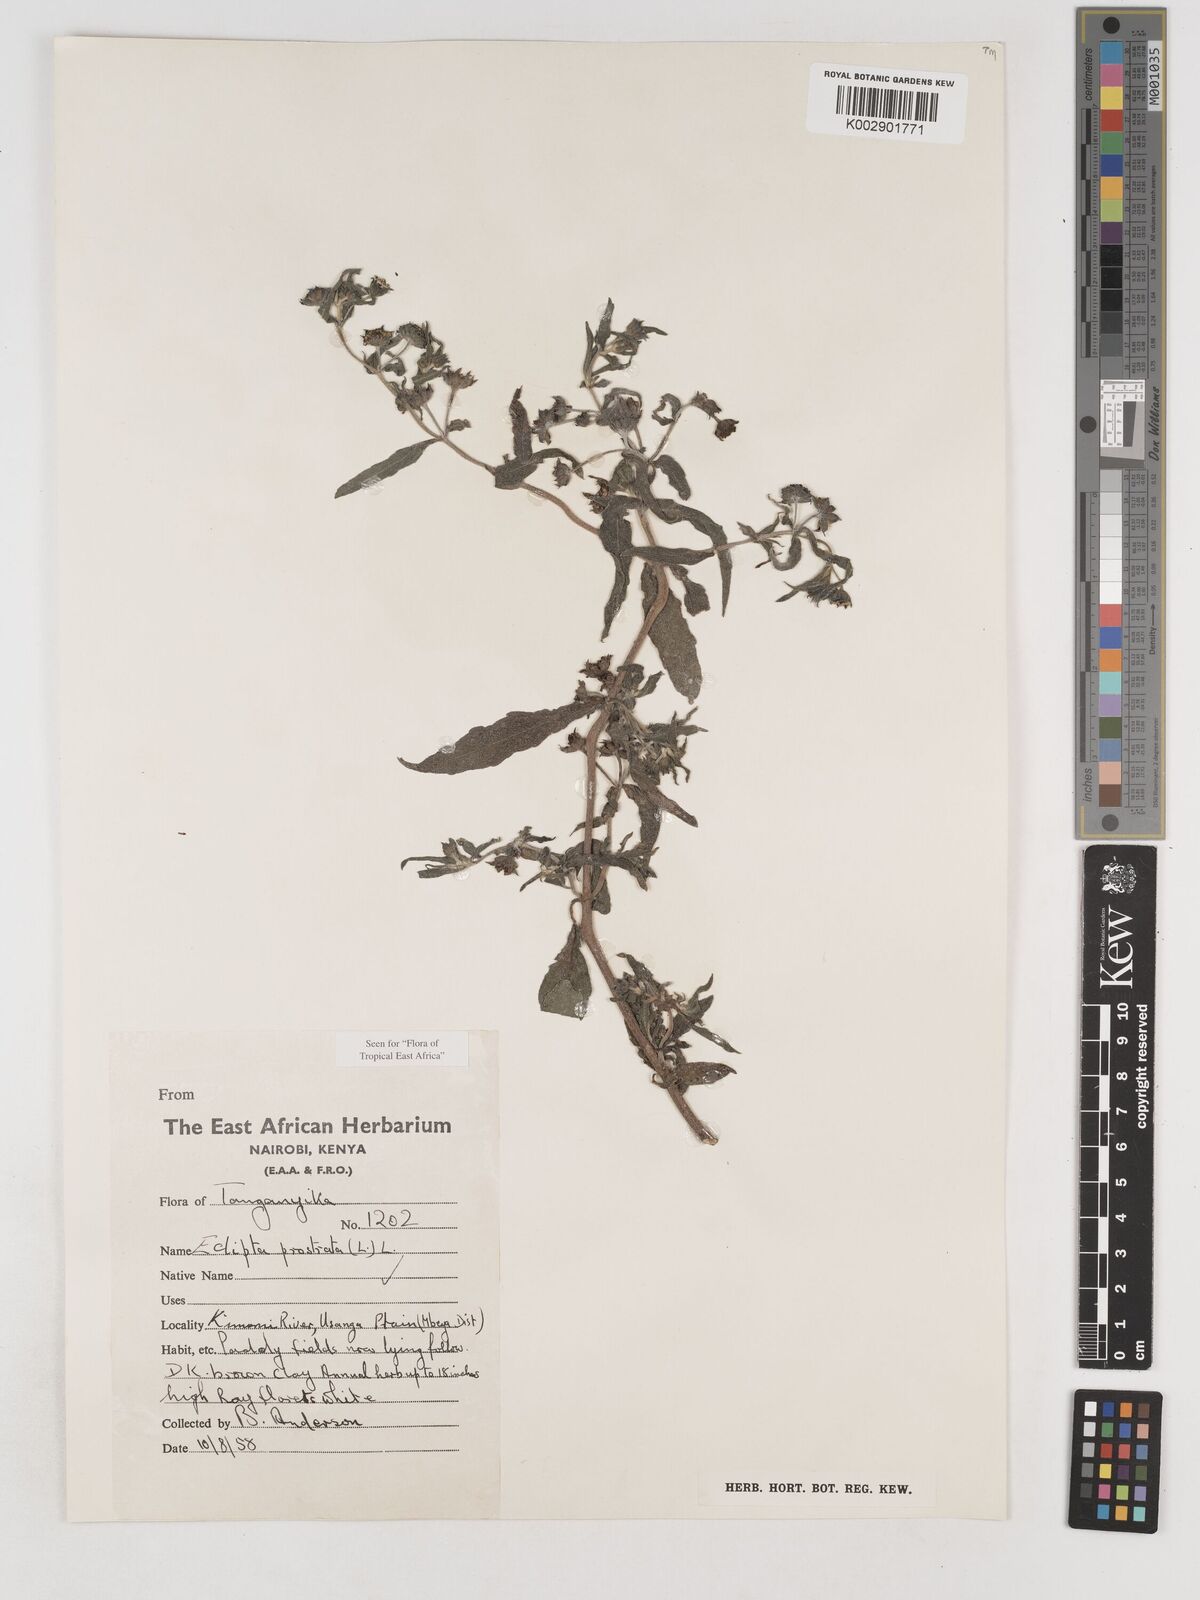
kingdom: Plantae
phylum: Tracheophyta
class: Magnoliopsida
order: Asterales
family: Asteraceae
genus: Eclipta
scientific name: Eclipta alba
